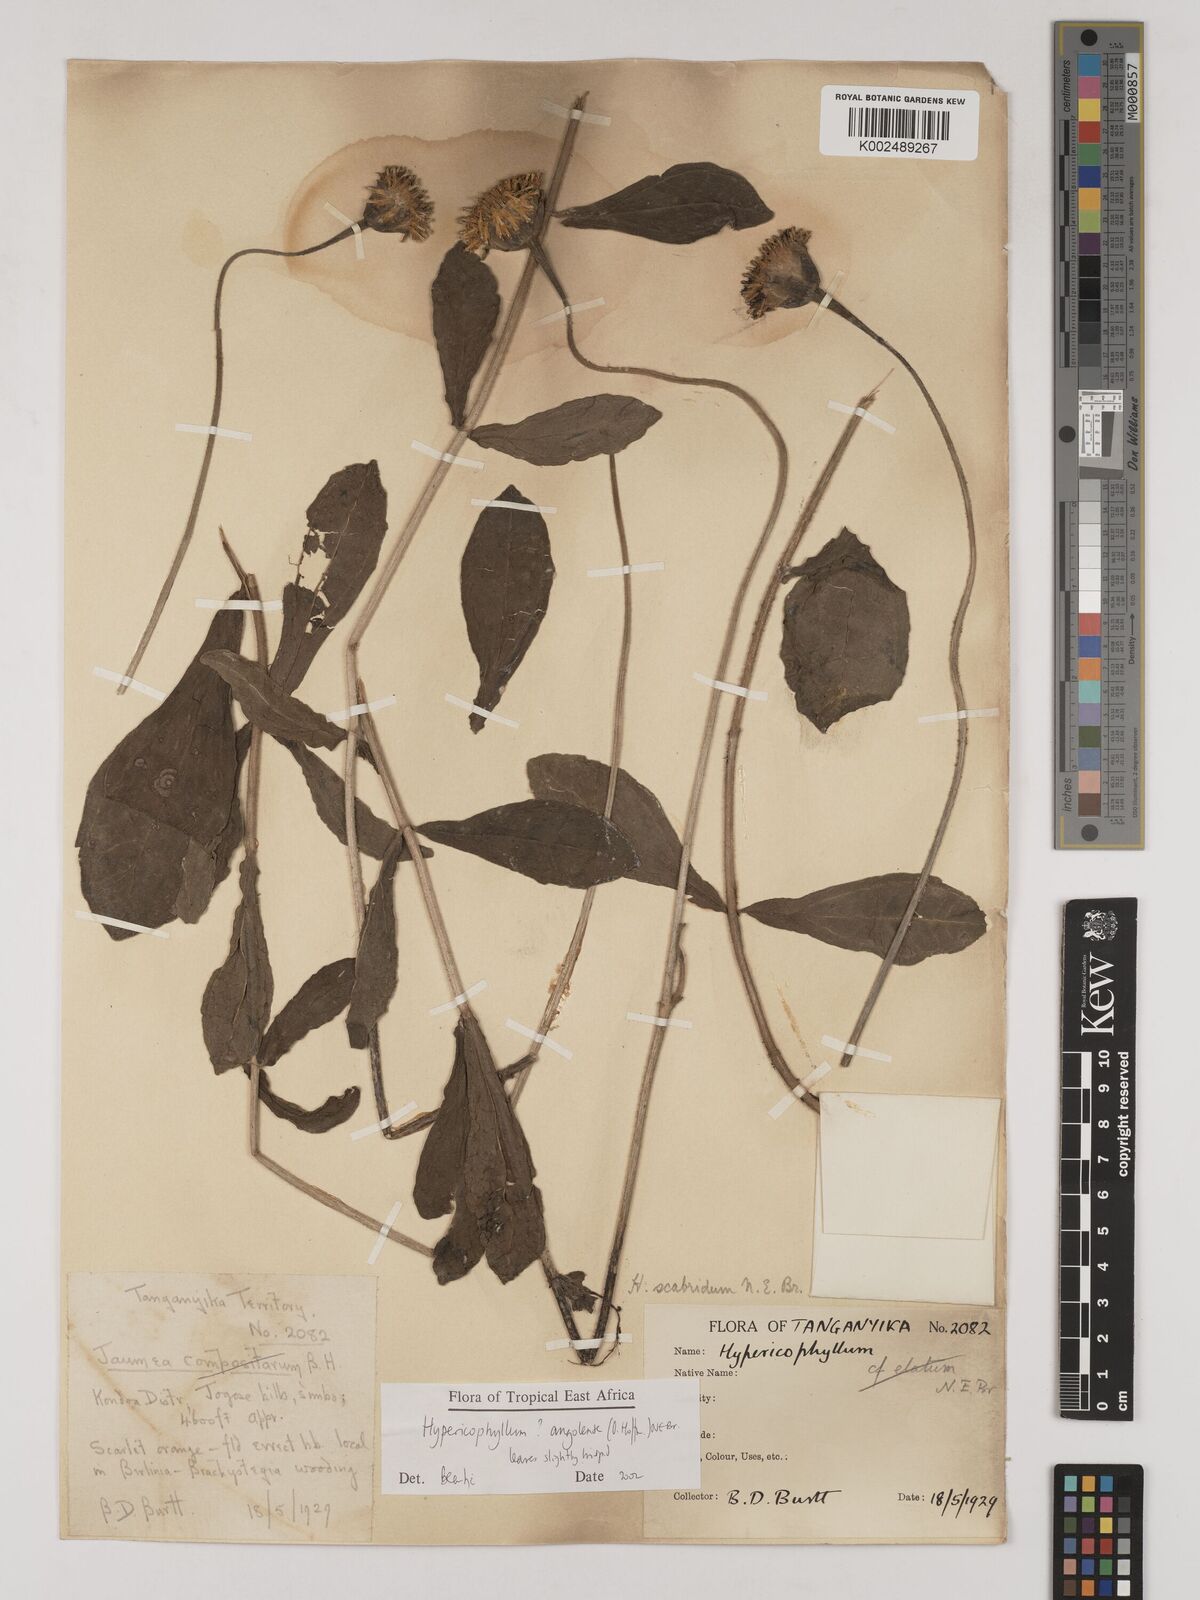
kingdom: Plantae
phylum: Tracheophyta
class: Magnoliopsida
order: Asterales
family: Asteraceae
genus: Hypericophyllum
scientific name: Hypericophyllum angolense
